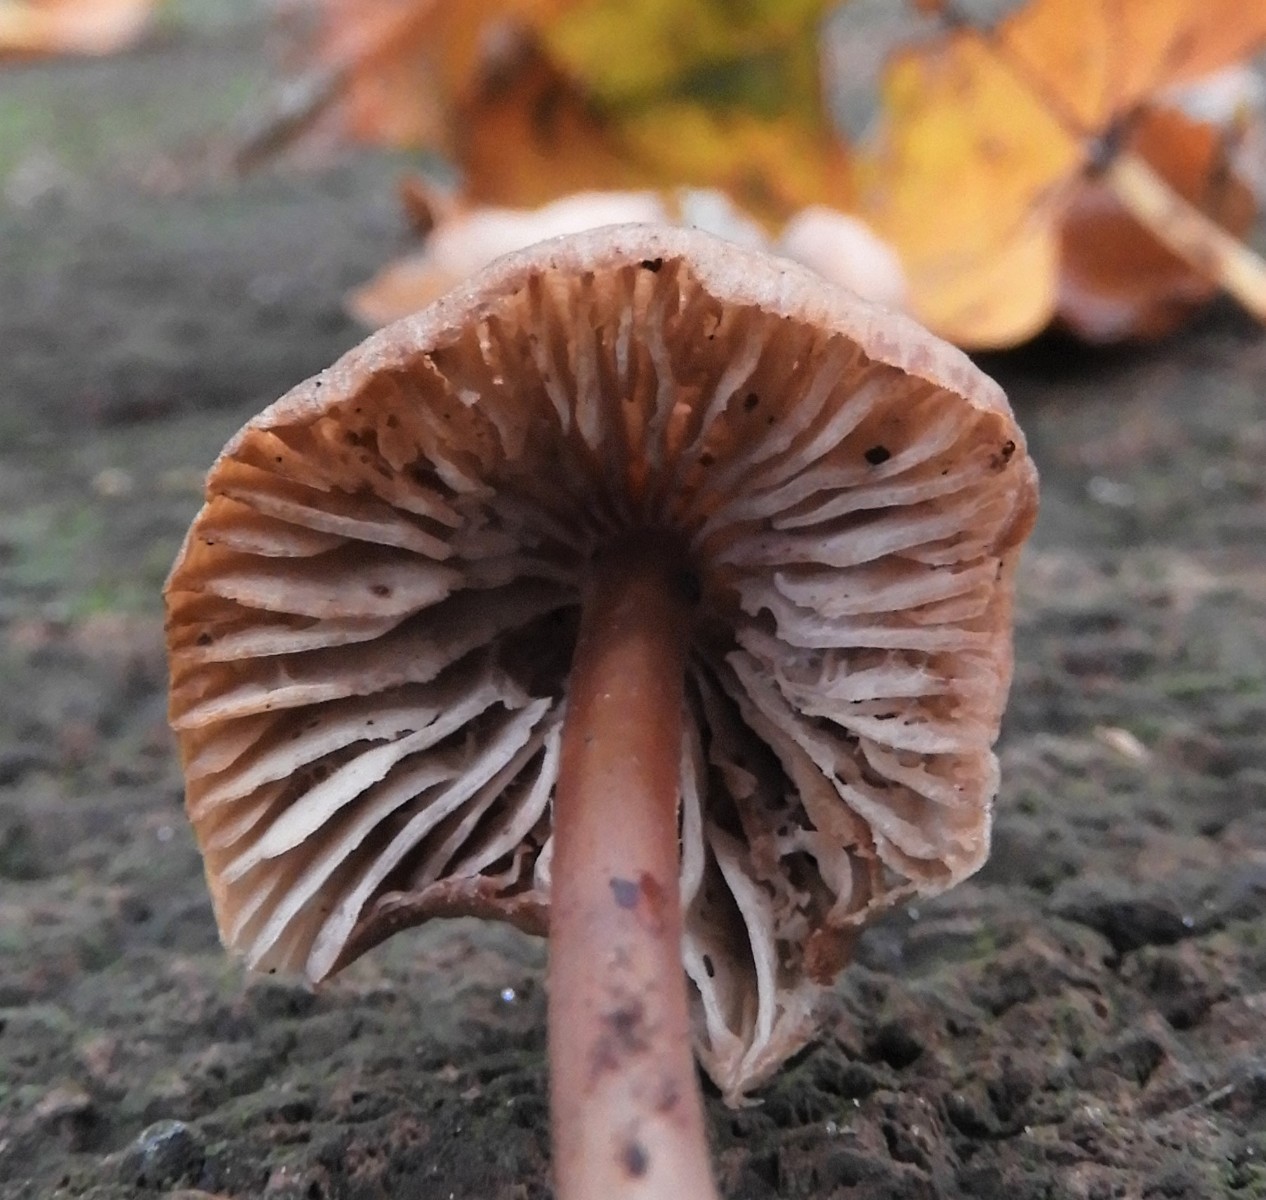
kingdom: Fungi
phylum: Basidiomycota
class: Agaricomycetes
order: Agaricales
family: Mycenaceae
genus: Mycena
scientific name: Mycena inclinata
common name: nikkende huesvamp
